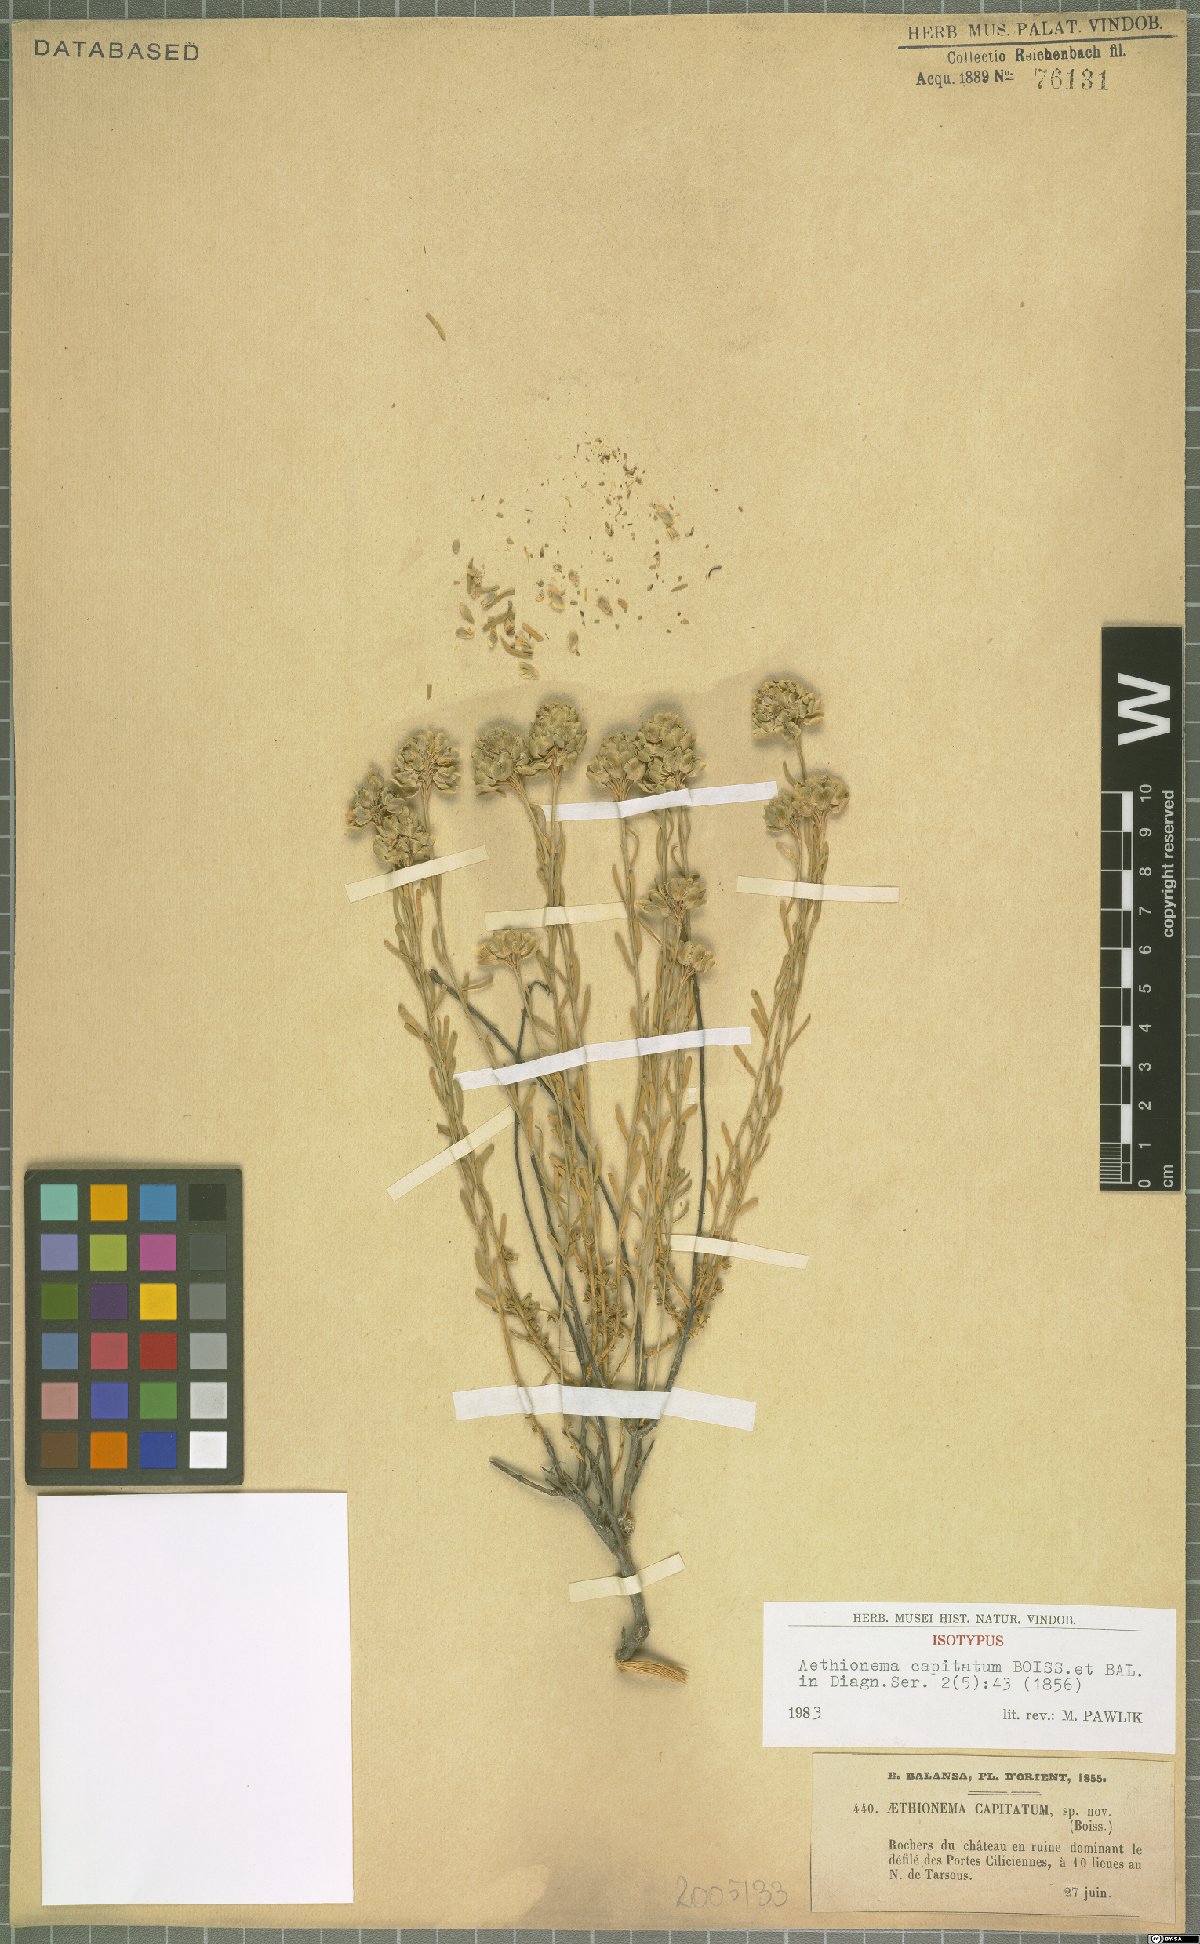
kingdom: Plantae
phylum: Tracheophyta
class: Magnoliopsida
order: Brassicales
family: Brassicaceae
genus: Aethionema
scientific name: Aethionema capitatum
